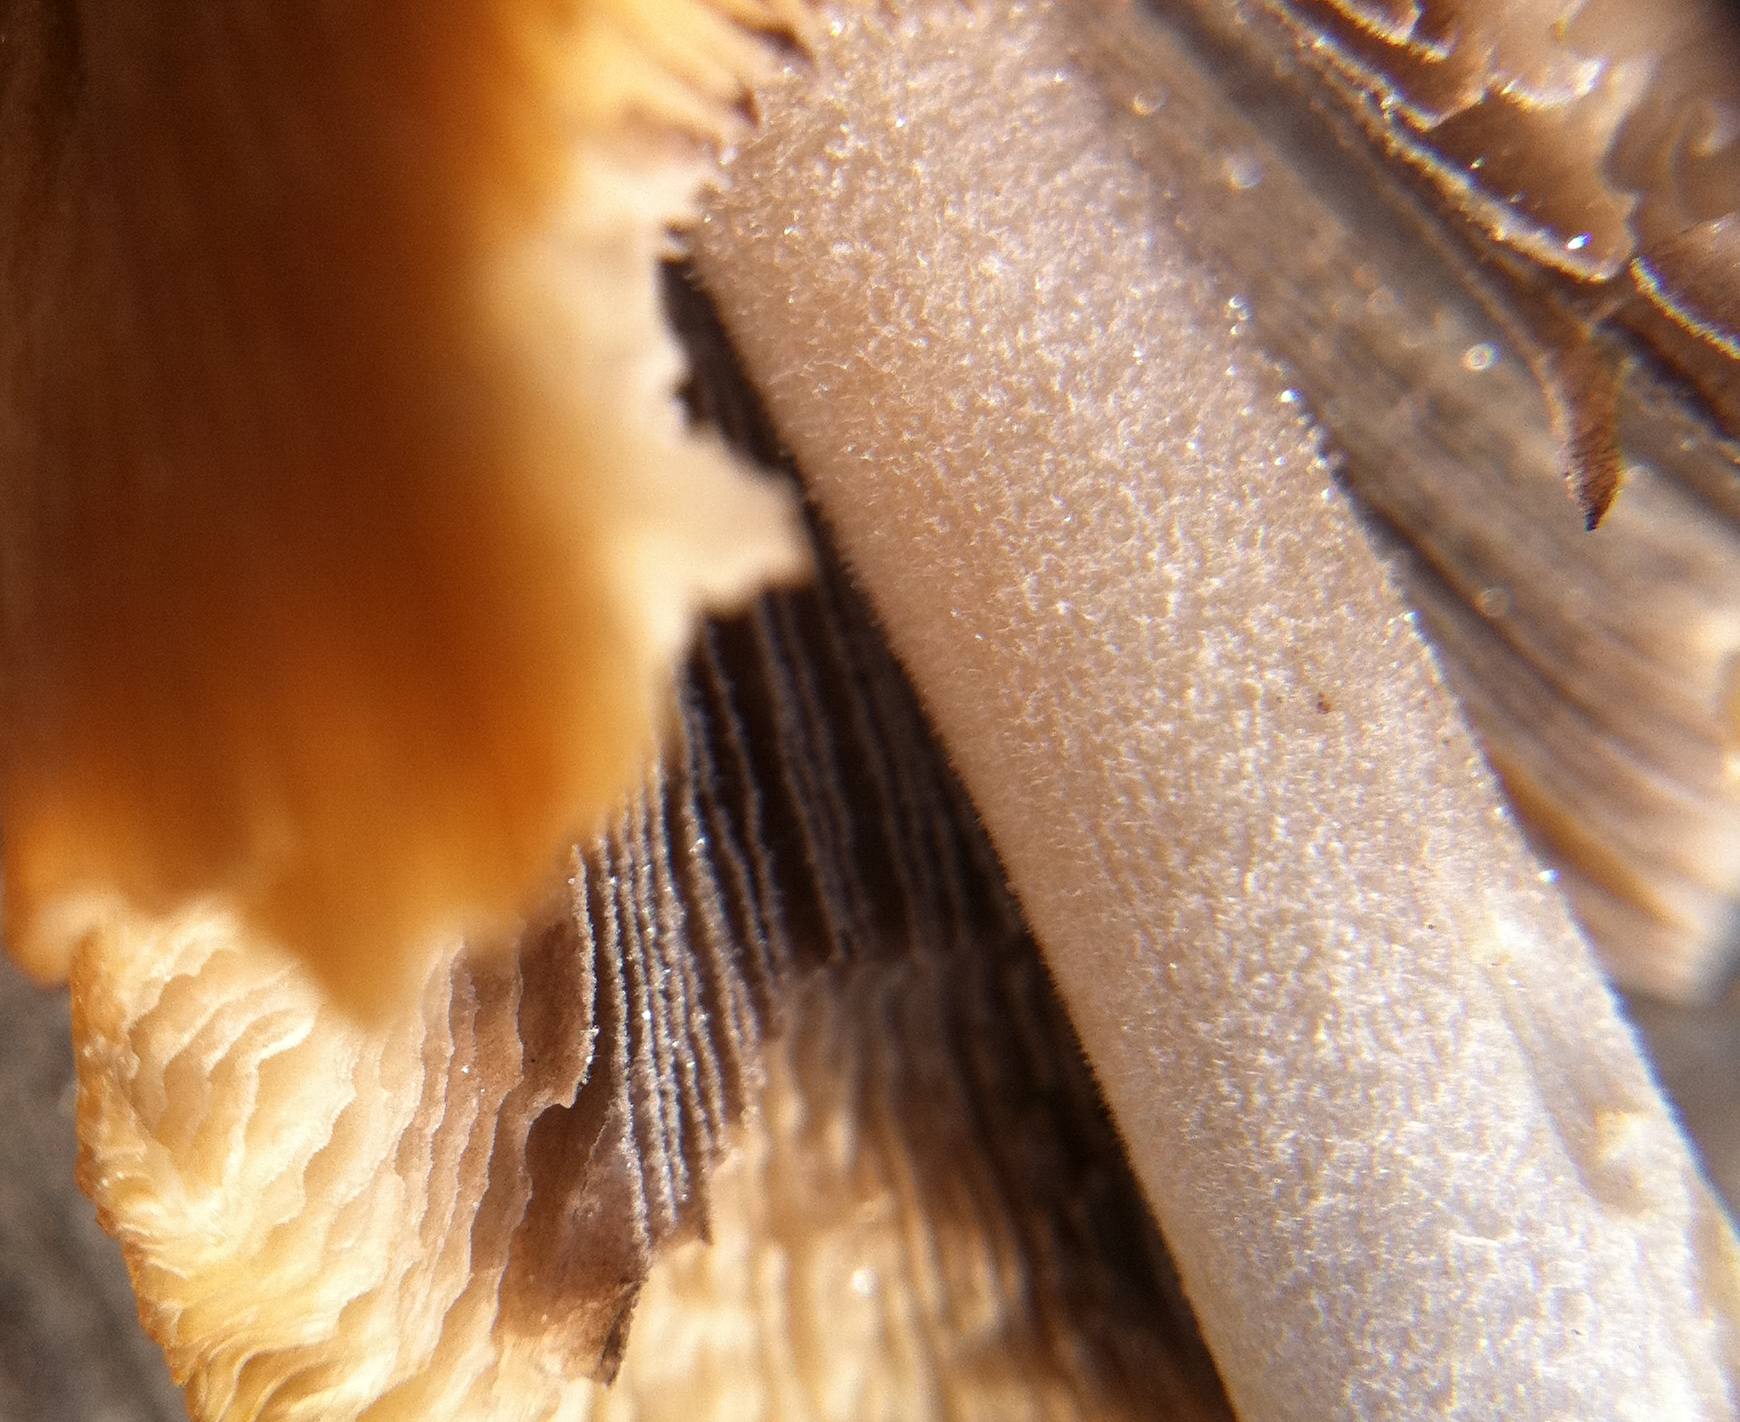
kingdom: Fungi
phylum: Basidiomycota
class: Agaricomycetes
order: Agaricales
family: Psathyrellaceae
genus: Coprinellus
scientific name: Coprinellus micaceus
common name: glimmer-blækhat
